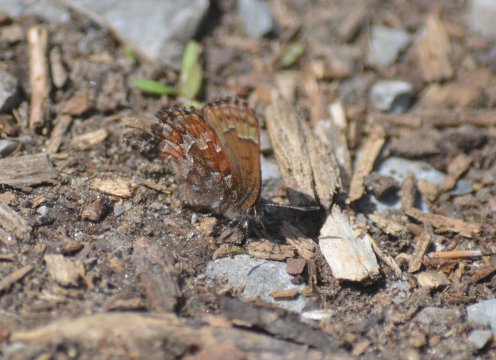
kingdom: Animalia
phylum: Arthropoda
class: Insecta
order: Lepidoptera
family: Lycaenidae
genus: Incisalia
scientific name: Incisalia niphon
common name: Eastern Pine Elfin
